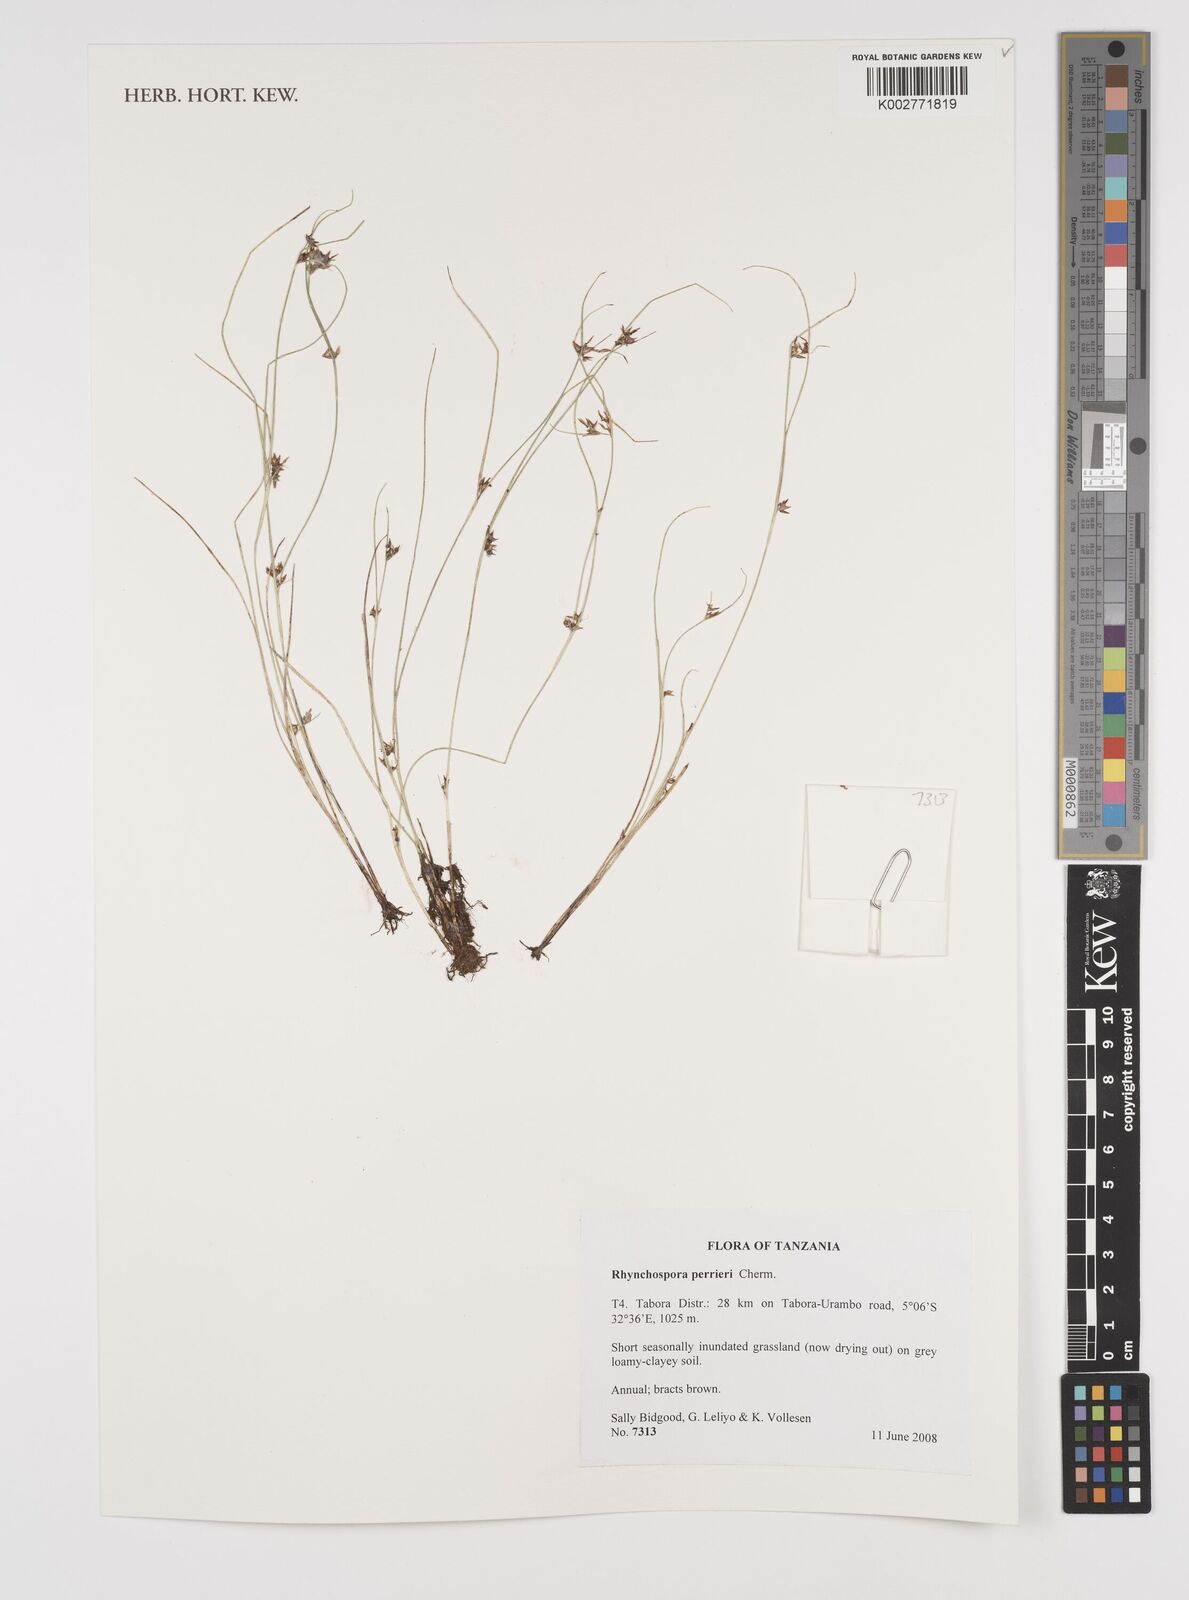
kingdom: Plantae
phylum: Tracheophyta
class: Liliopsida
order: Poales
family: Cyperaceae
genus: Rhynchospora
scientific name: Rhynchospora perrieri
